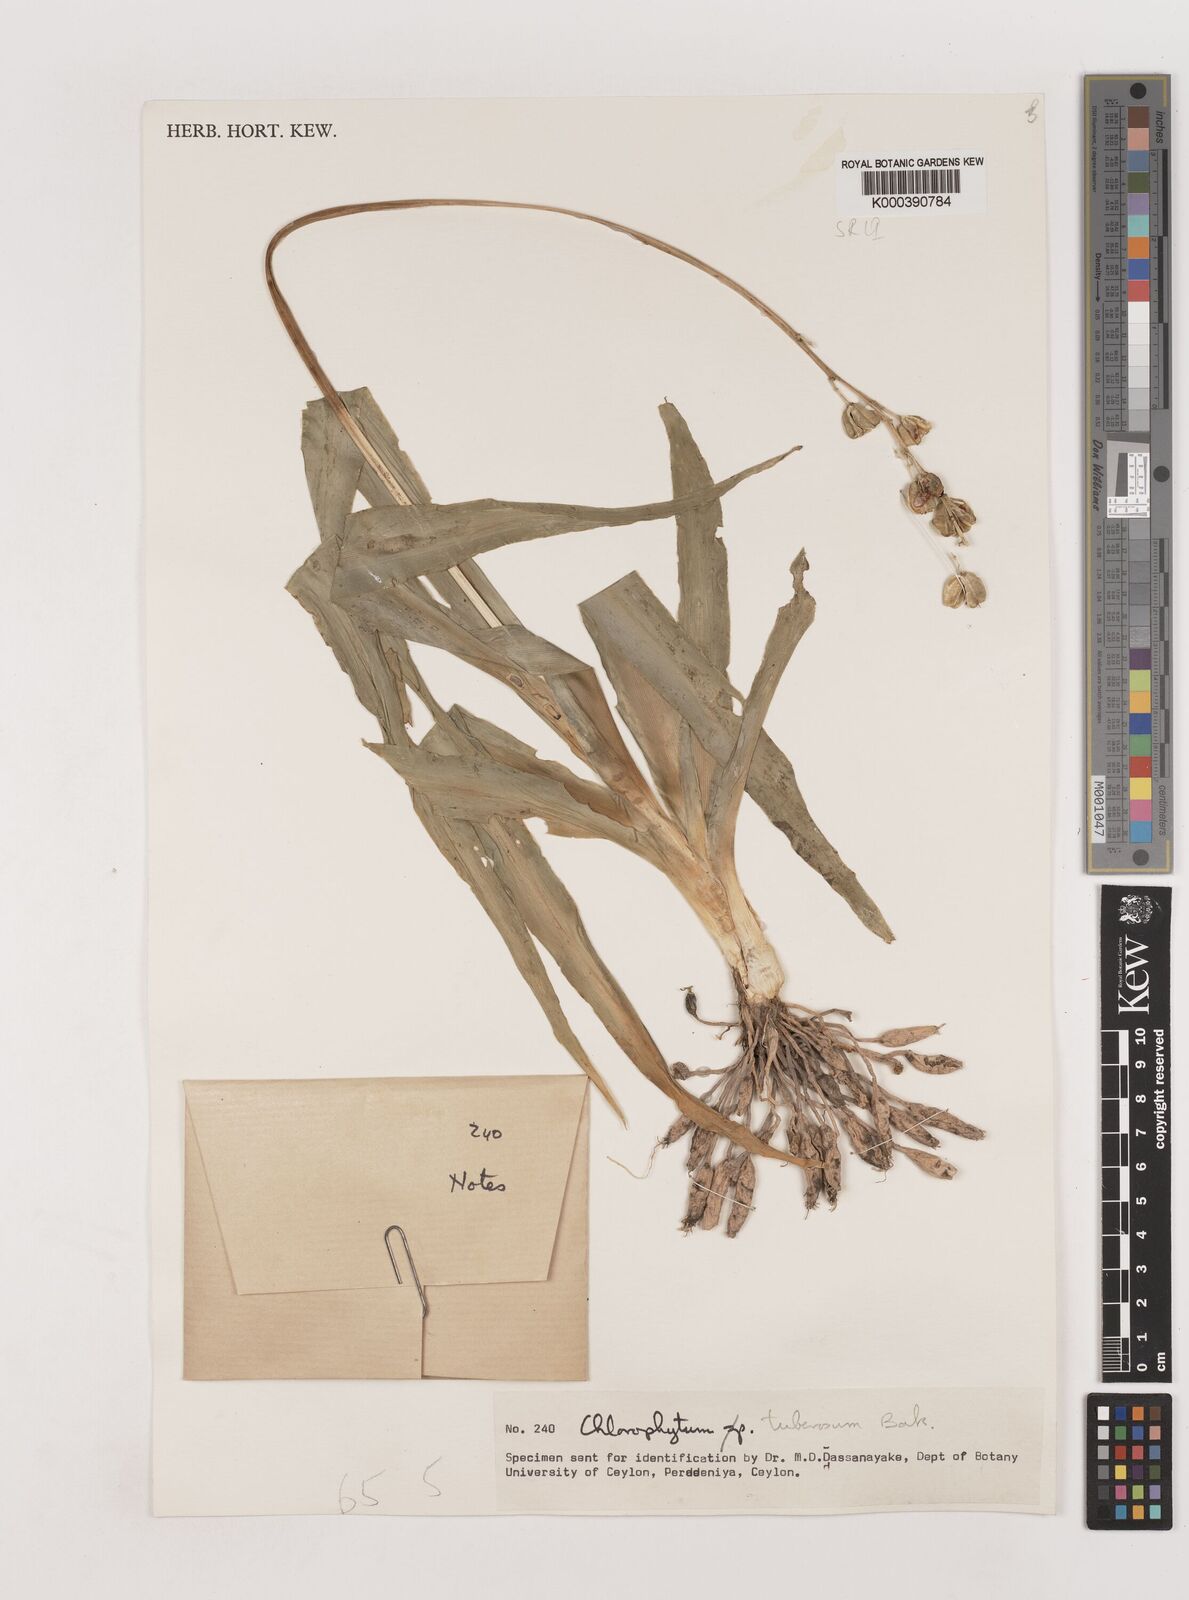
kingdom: Plantae
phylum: Tracheophyta
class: Liliopsida
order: Asparagales
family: Asparagaceae
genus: Chlorophytum
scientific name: Chlorophytum tuberosum
